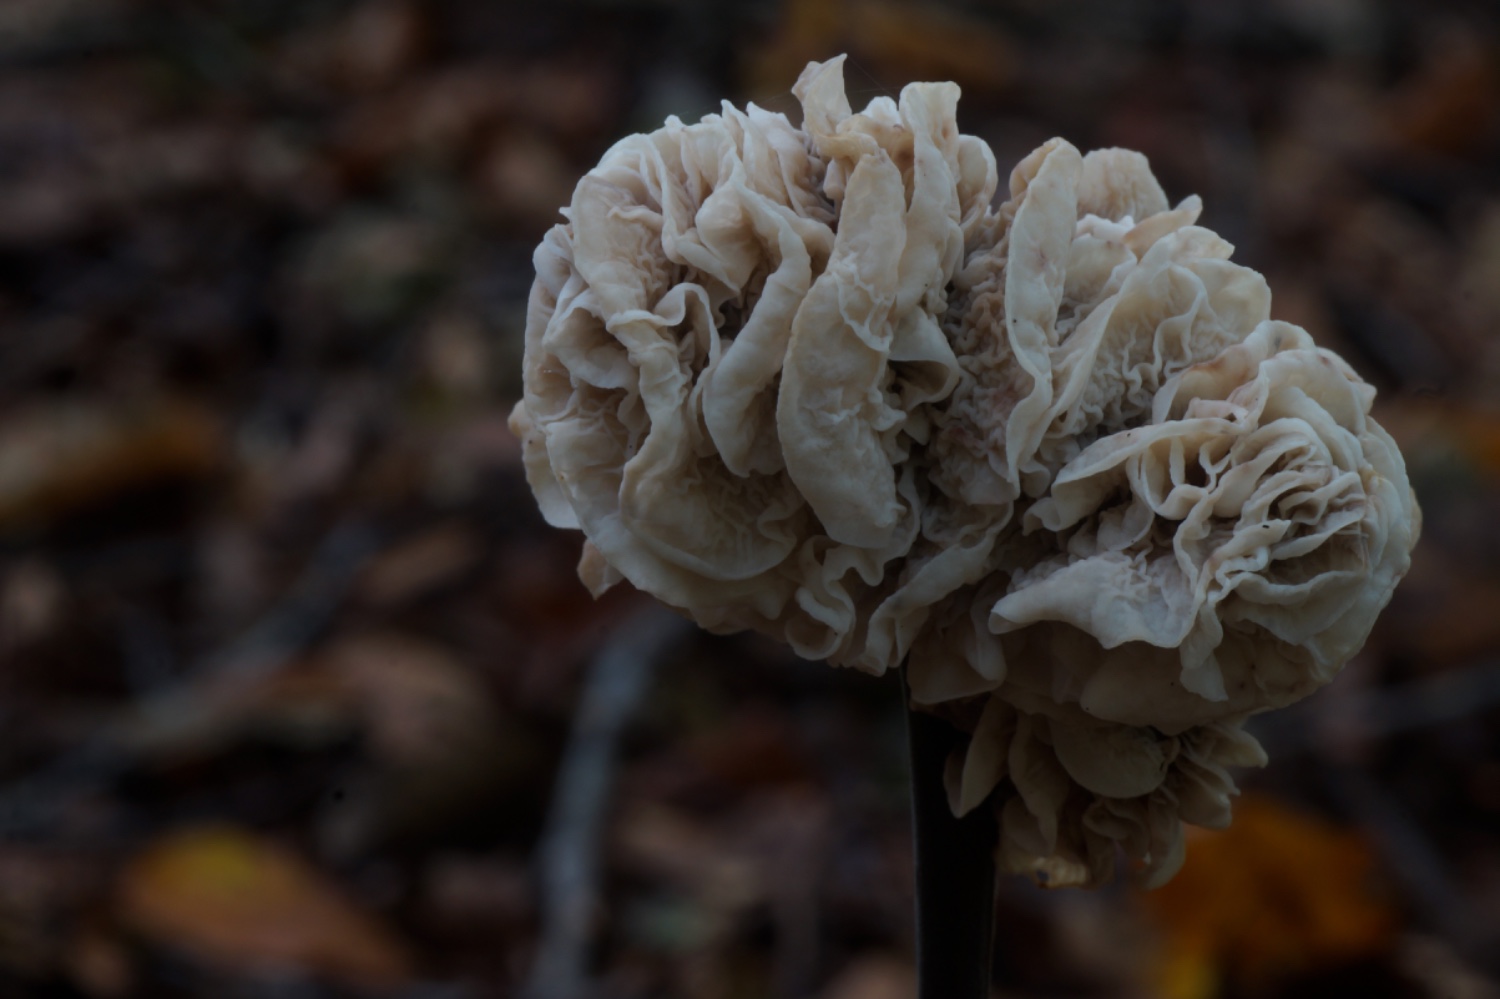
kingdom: Fungi
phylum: Basidiomycota
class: Agaricomycetes
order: Agaricales
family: Omphalotaceae
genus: Mycetinis
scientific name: Mycetinis alliaceus
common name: stor løghat
